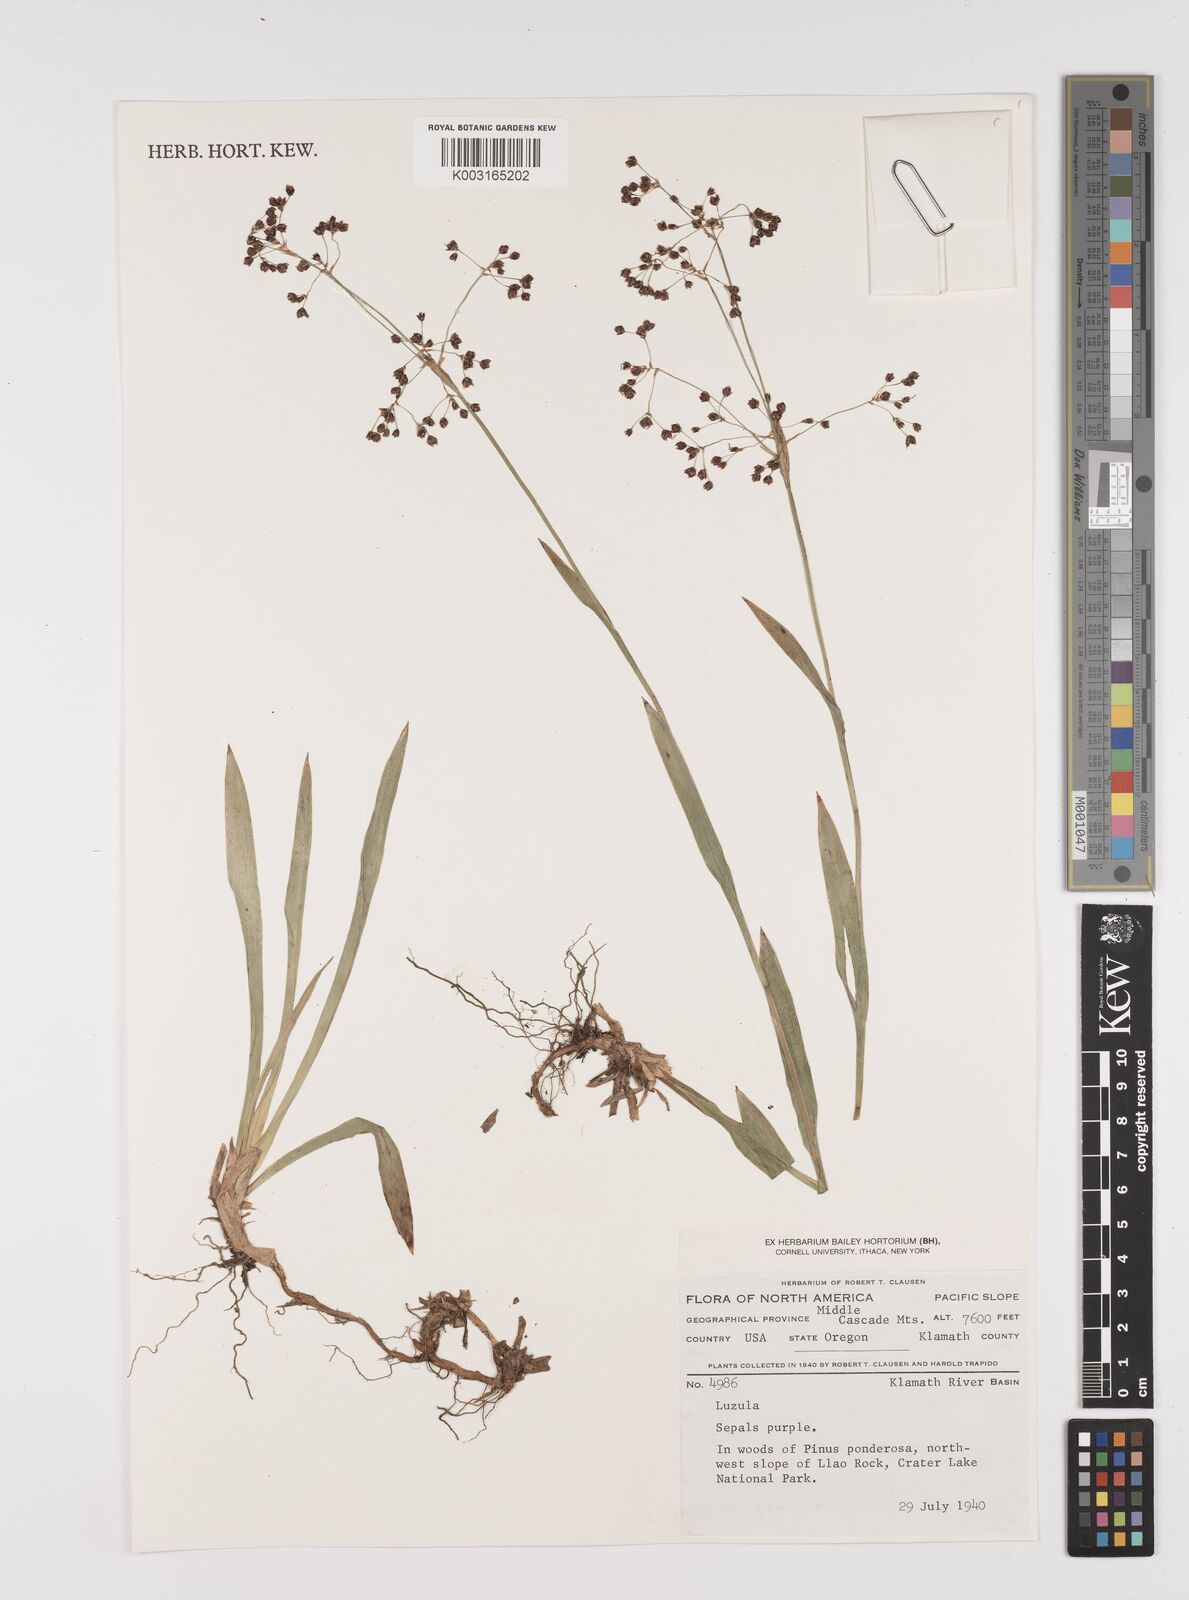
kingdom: Plantae
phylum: Tracheophyta
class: Liliopsida
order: Poales
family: Juncaceae
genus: Luzula
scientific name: Luzula
